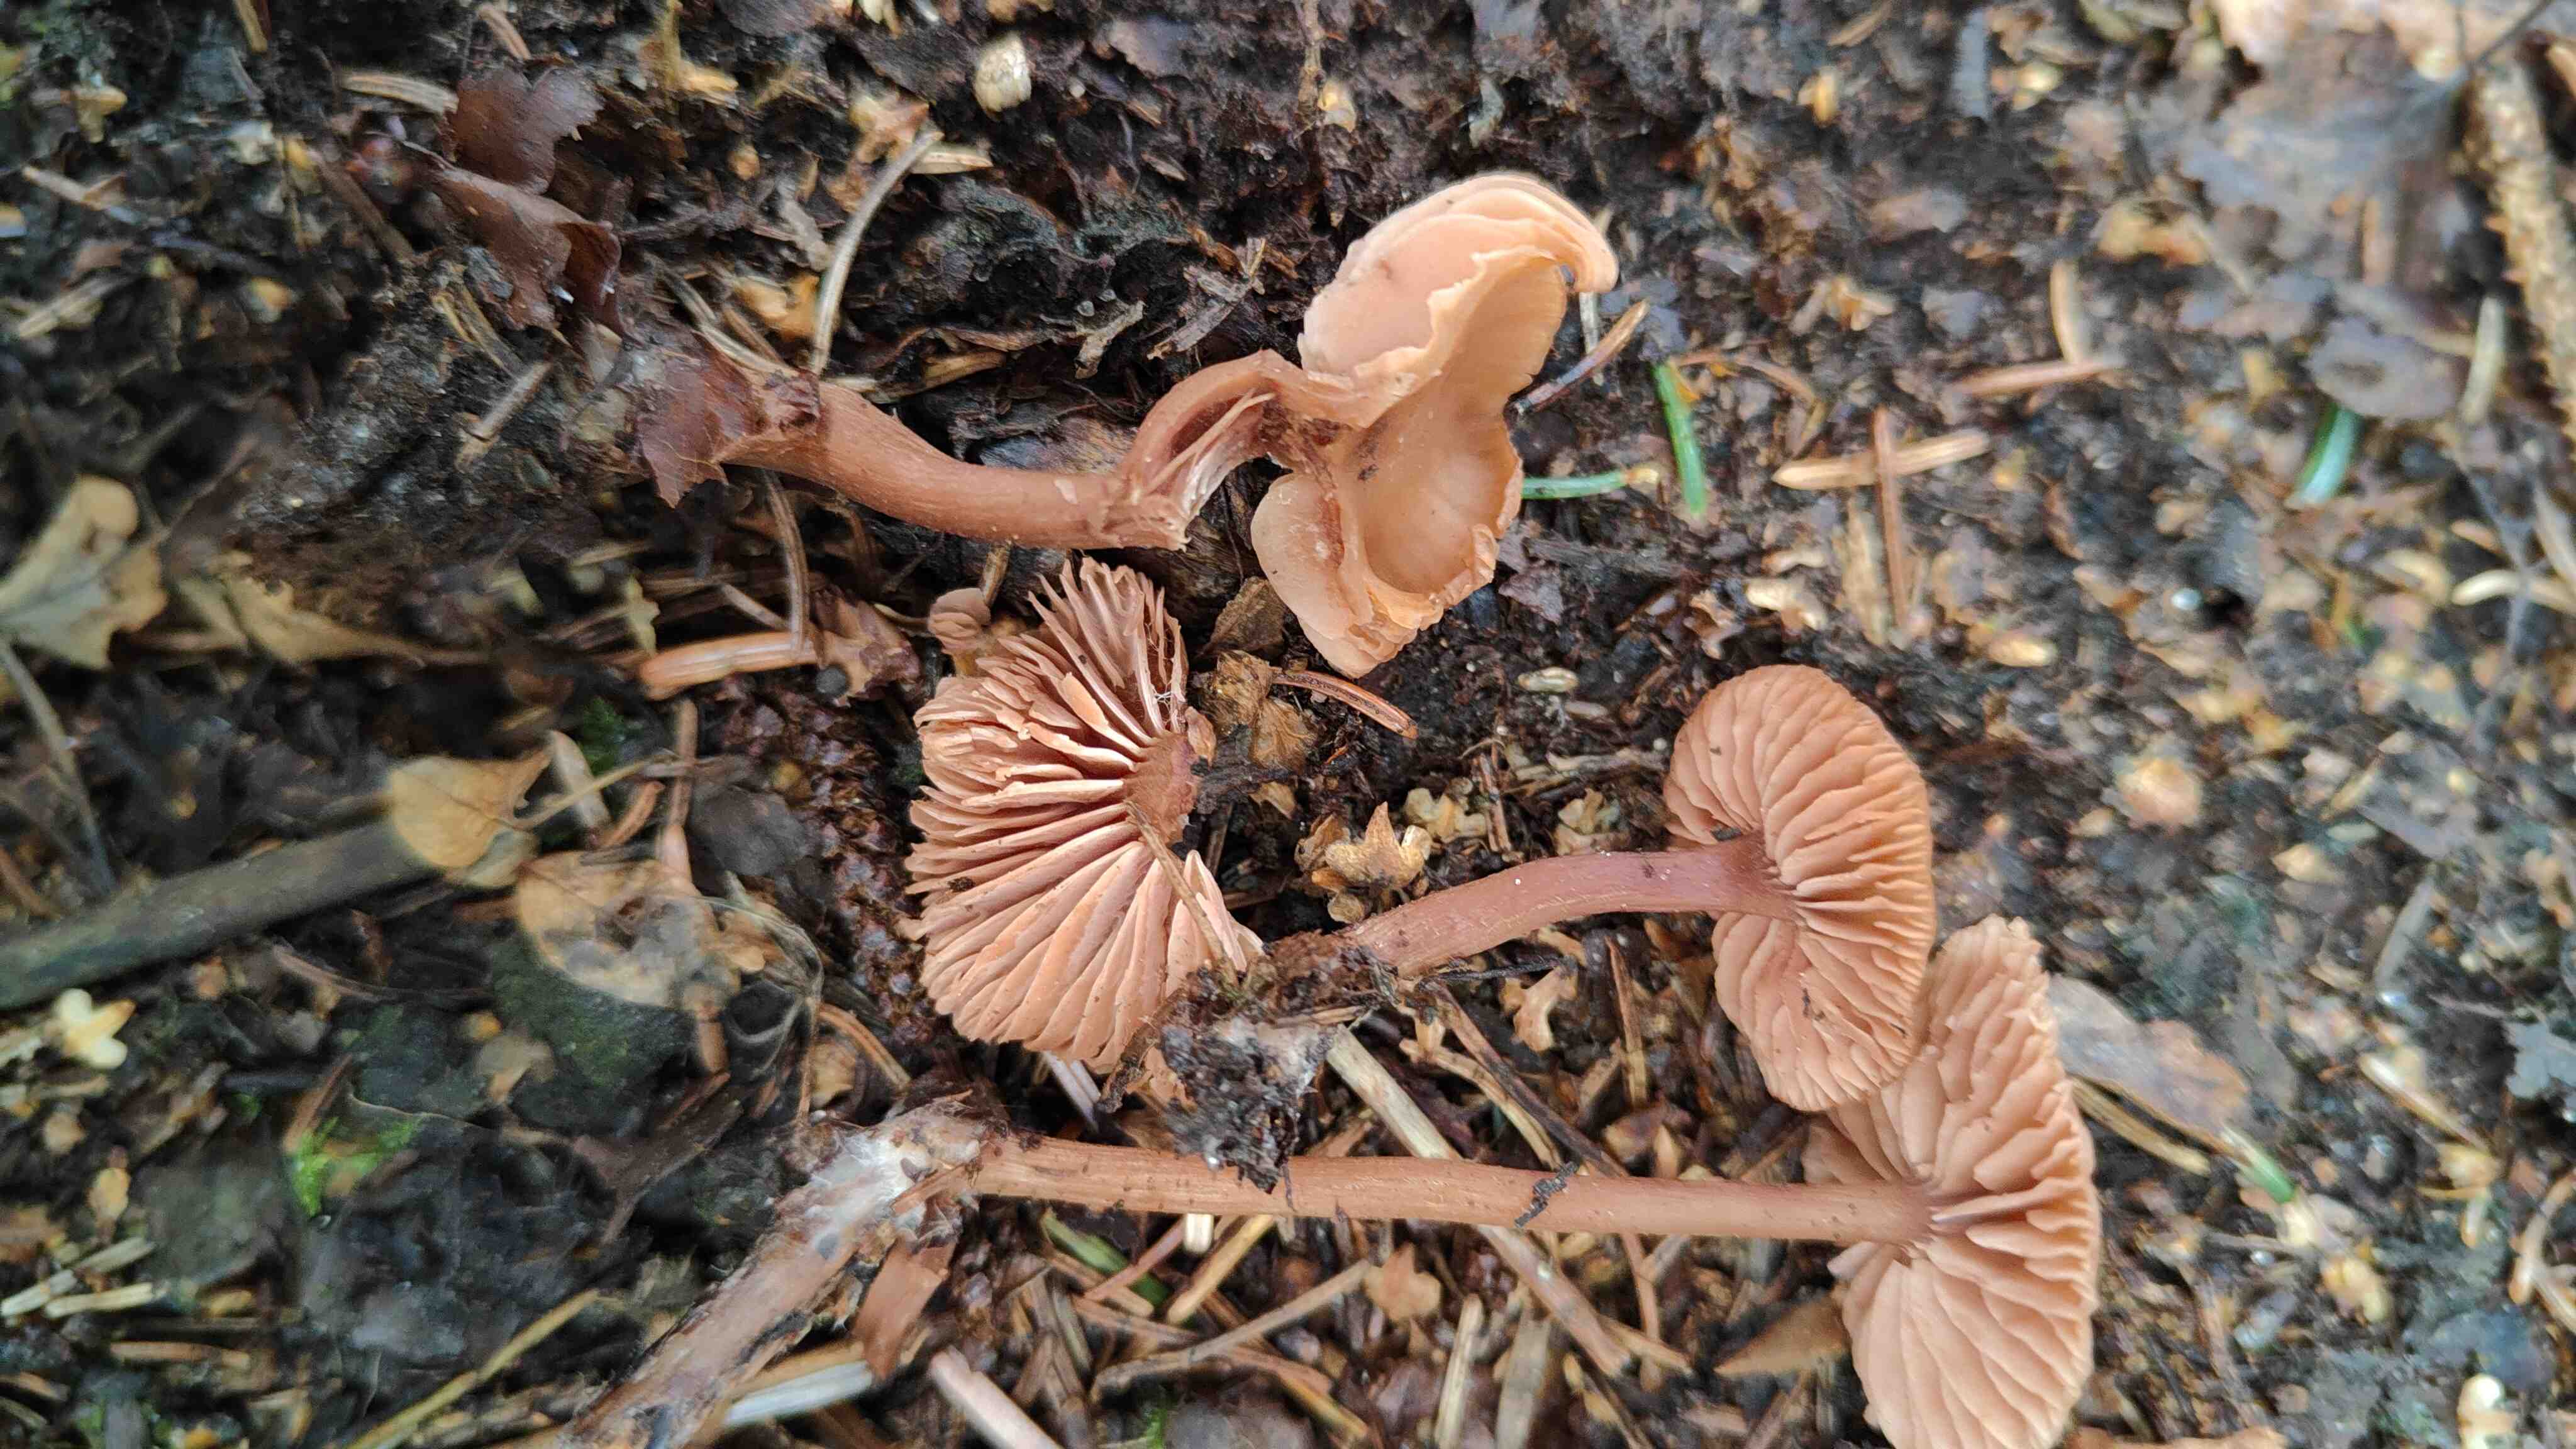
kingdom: Fungi
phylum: Basidiomycota
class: Agaricomycetes
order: Agaricales
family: Hydnangiaceae
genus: Laccaria
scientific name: Laccaria laccata
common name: rød ametysthat
